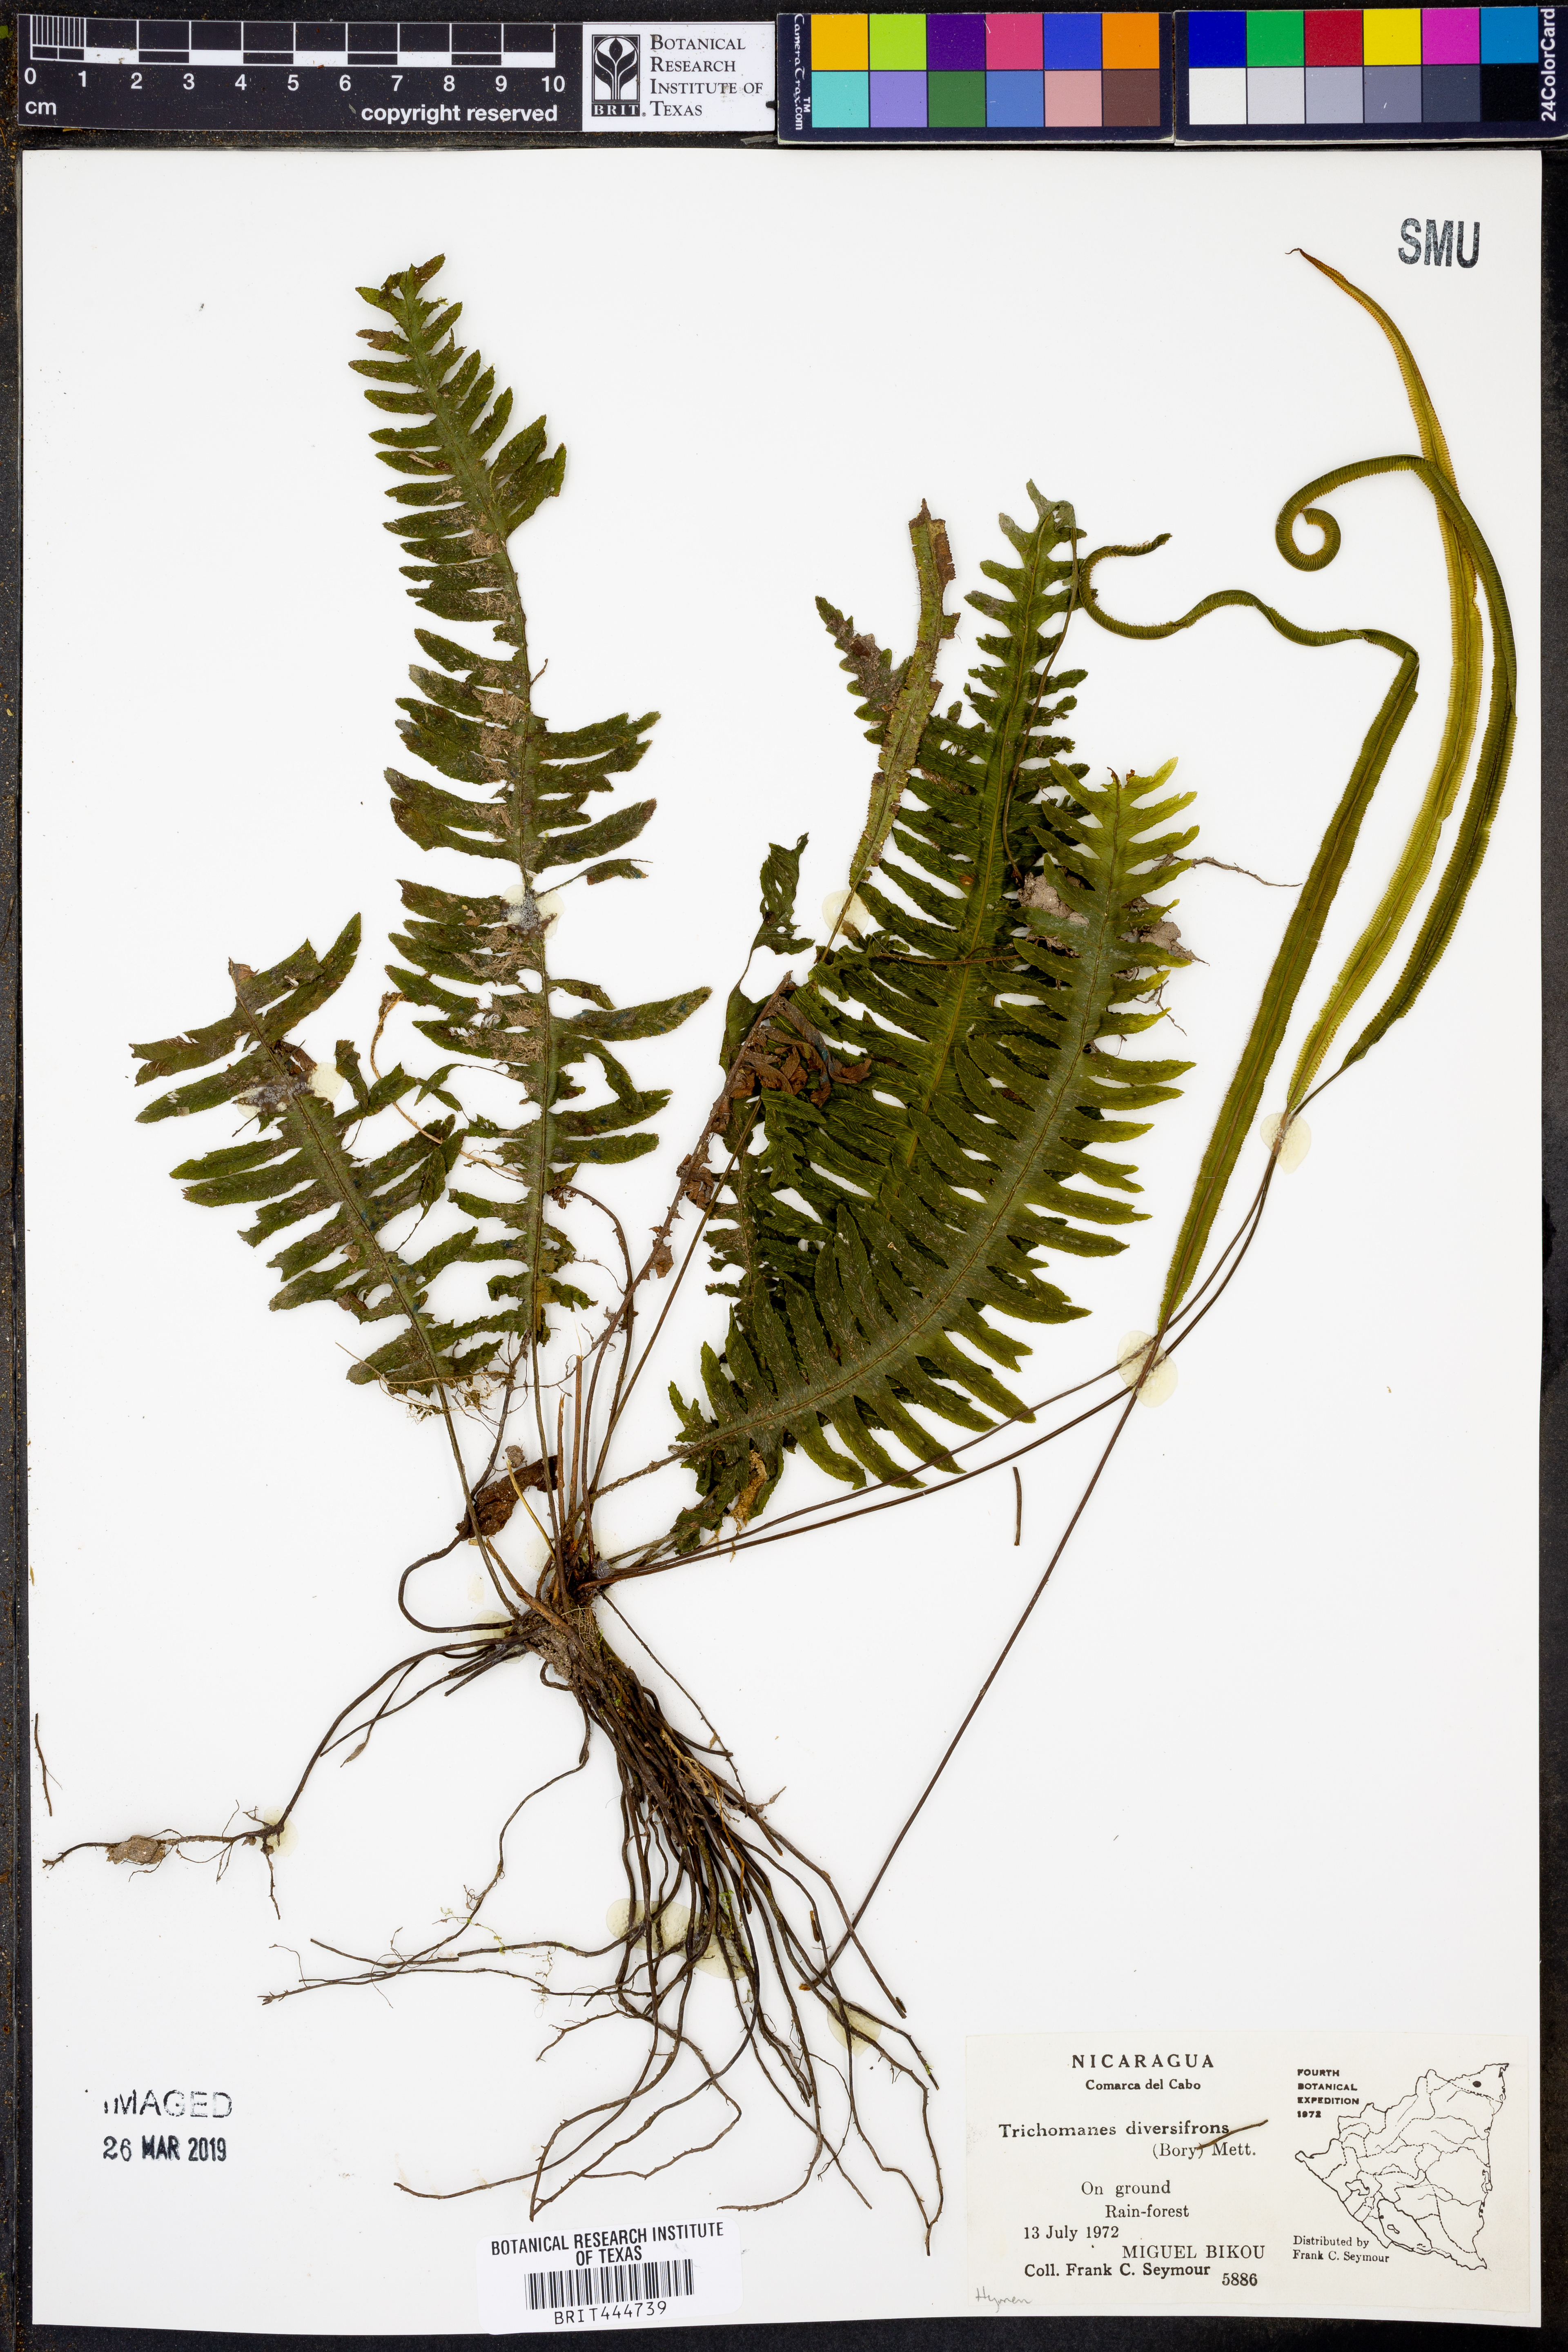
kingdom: Plantae
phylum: Tracheophyta
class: Polypodiopsida
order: Hymenophyllales
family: Hymenophyllaceae
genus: Trichomanes
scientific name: Trichomanes diversifrons
